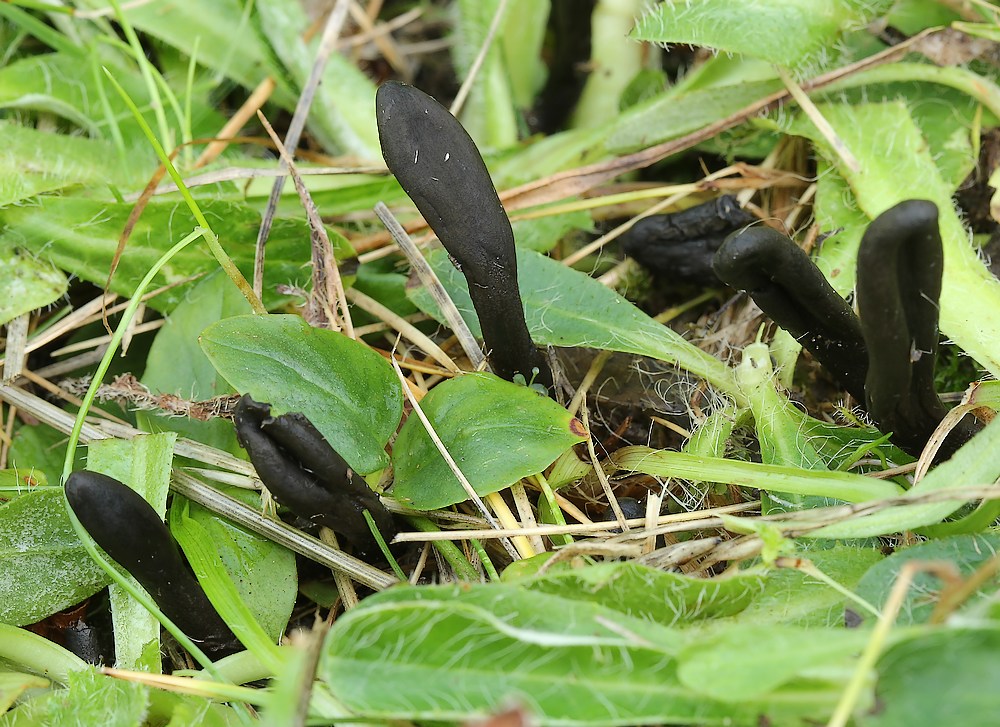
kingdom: Fungi
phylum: Ascomycota
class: Geoglossomycetes
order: Geoglossales
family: Geoglossaceae
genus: Geoglossum
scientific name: Geoglossum umbratile
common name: slank jordtunge
